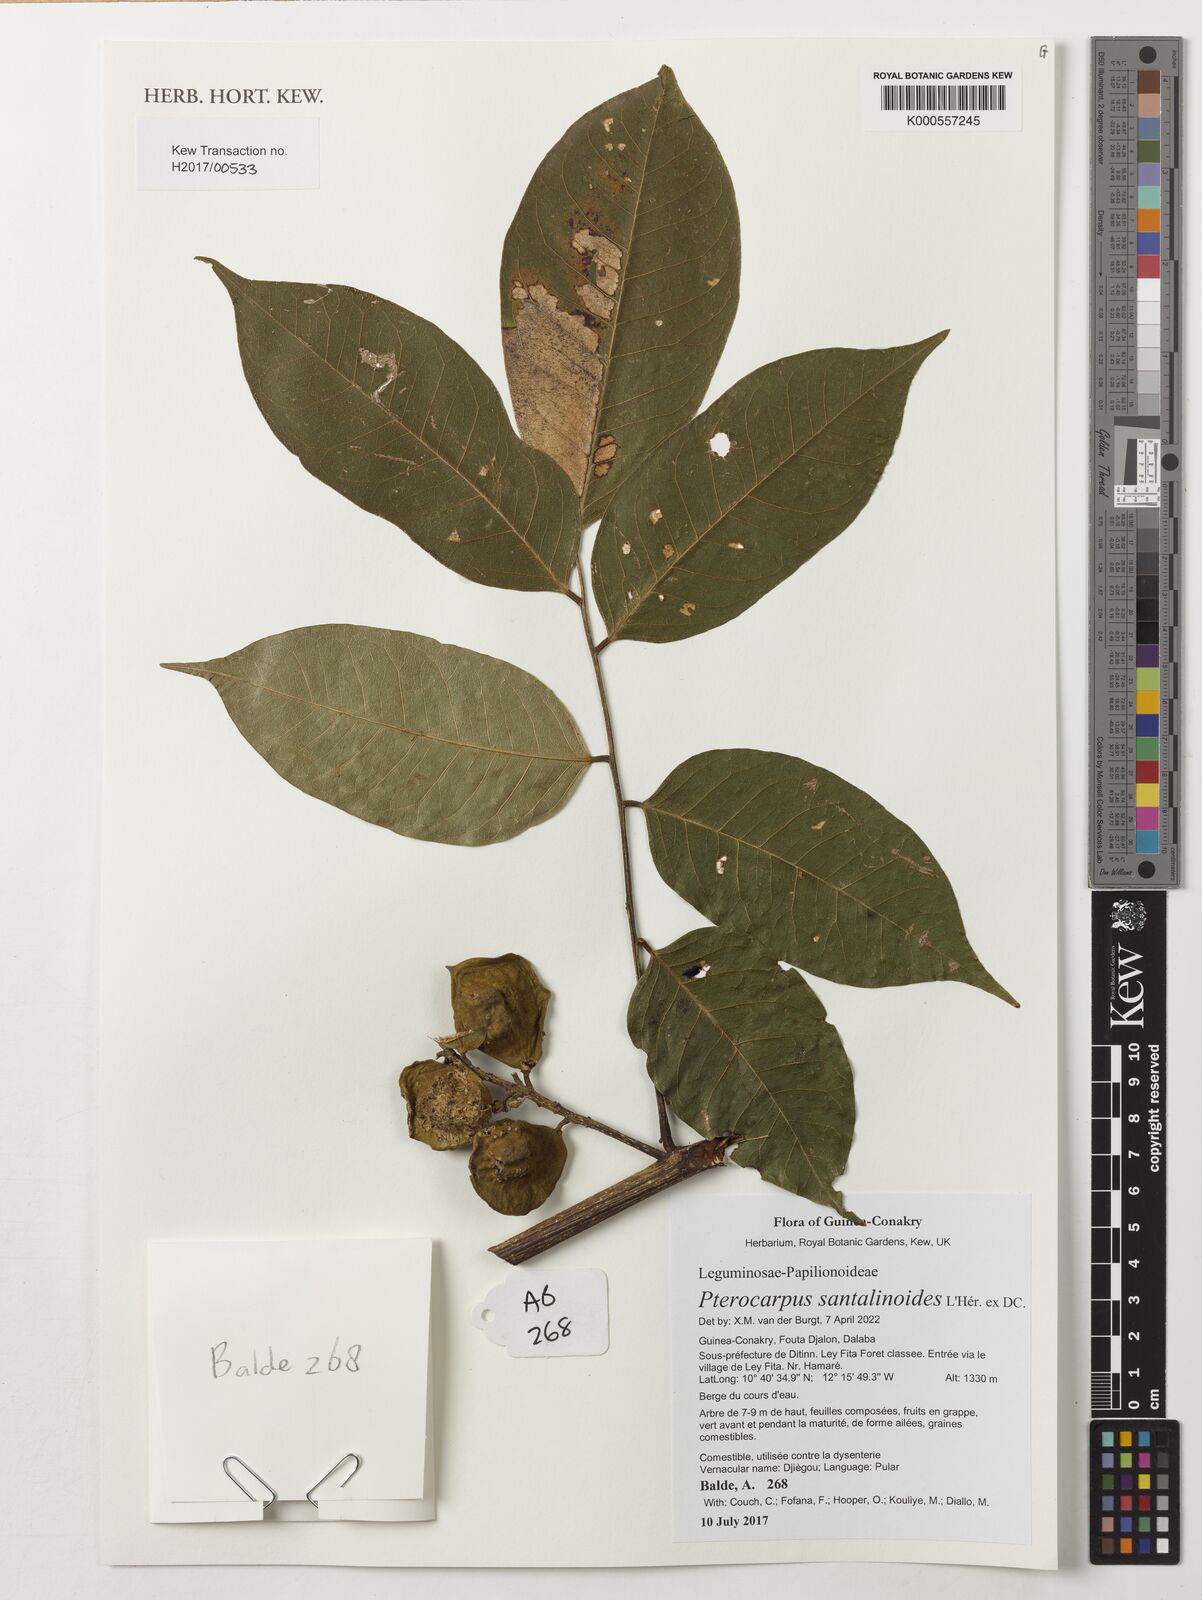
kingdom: Plantae
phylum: Tracheophyta
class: Magnoliopsida
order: Fabales
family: Fabaceae
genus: Pterocarpus
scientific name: Pterocarpus santalinoides
